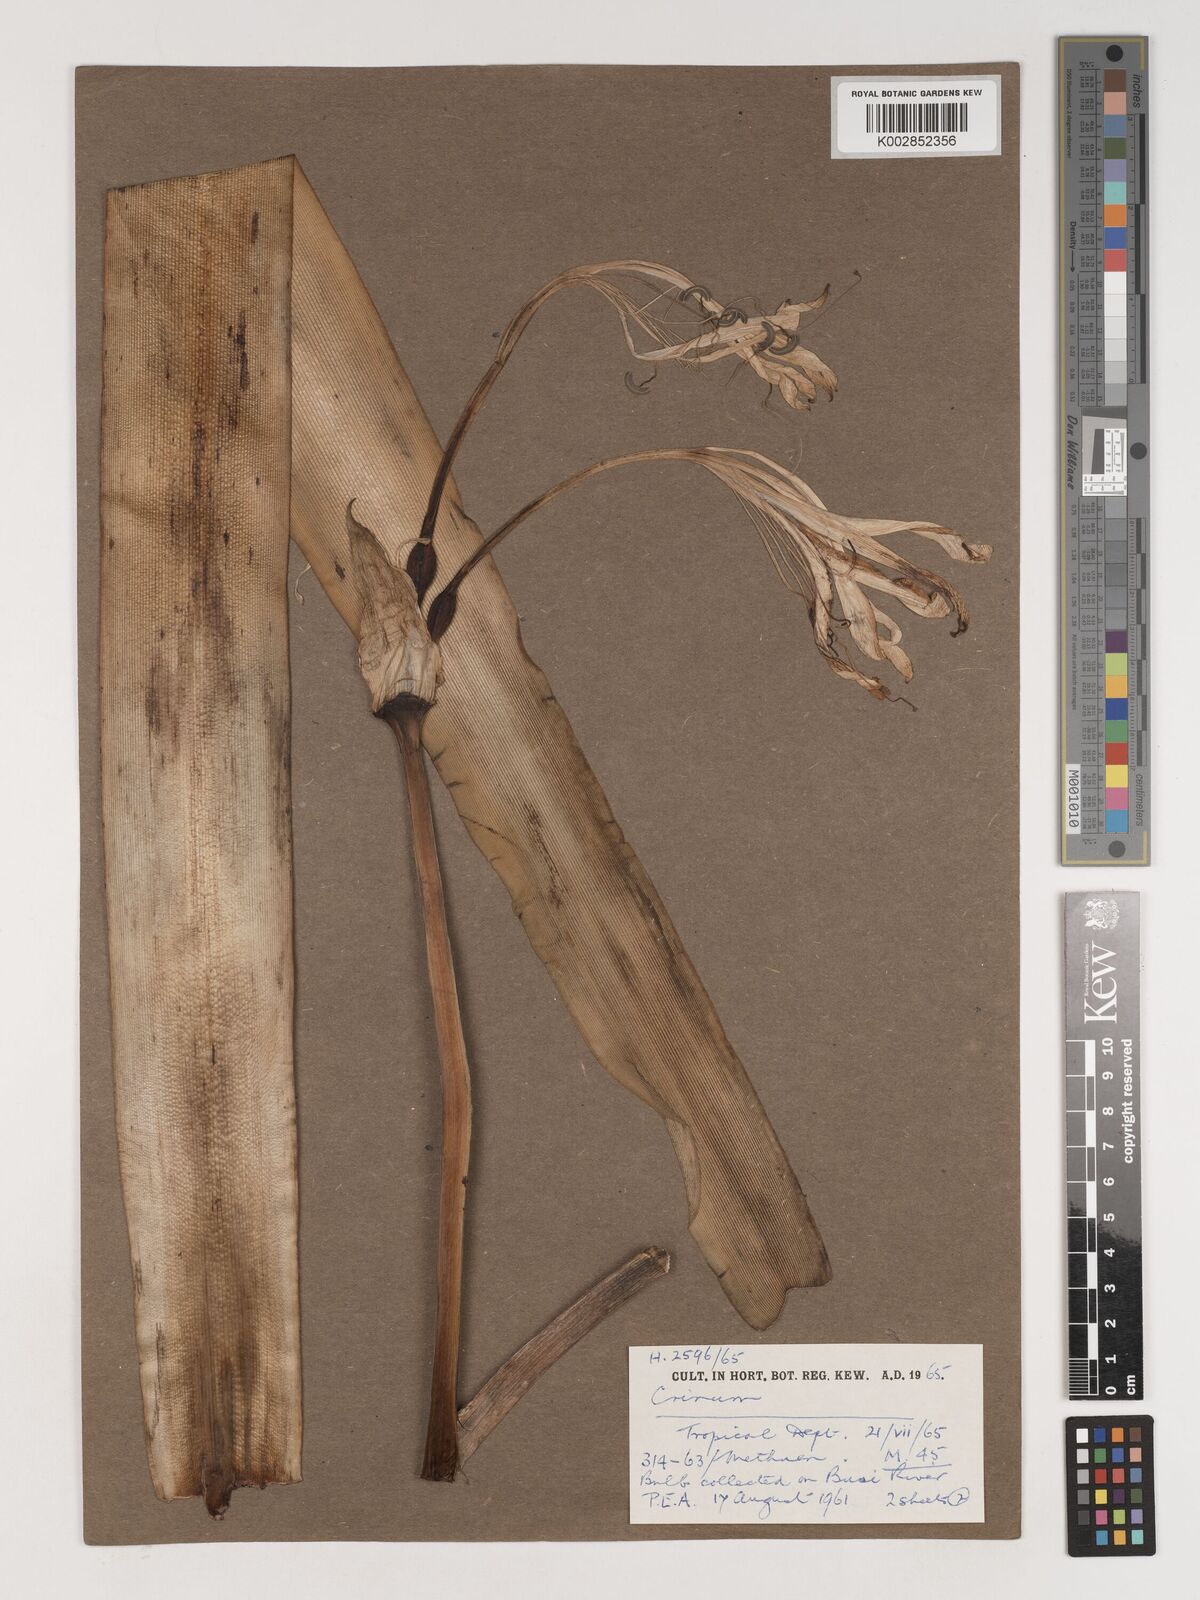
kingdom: Plantae
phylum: Tracheophyta
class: Liliopsida
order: Asparagales
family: Amaryllidaceae
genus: Crinum
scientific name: Crinum macowanii
